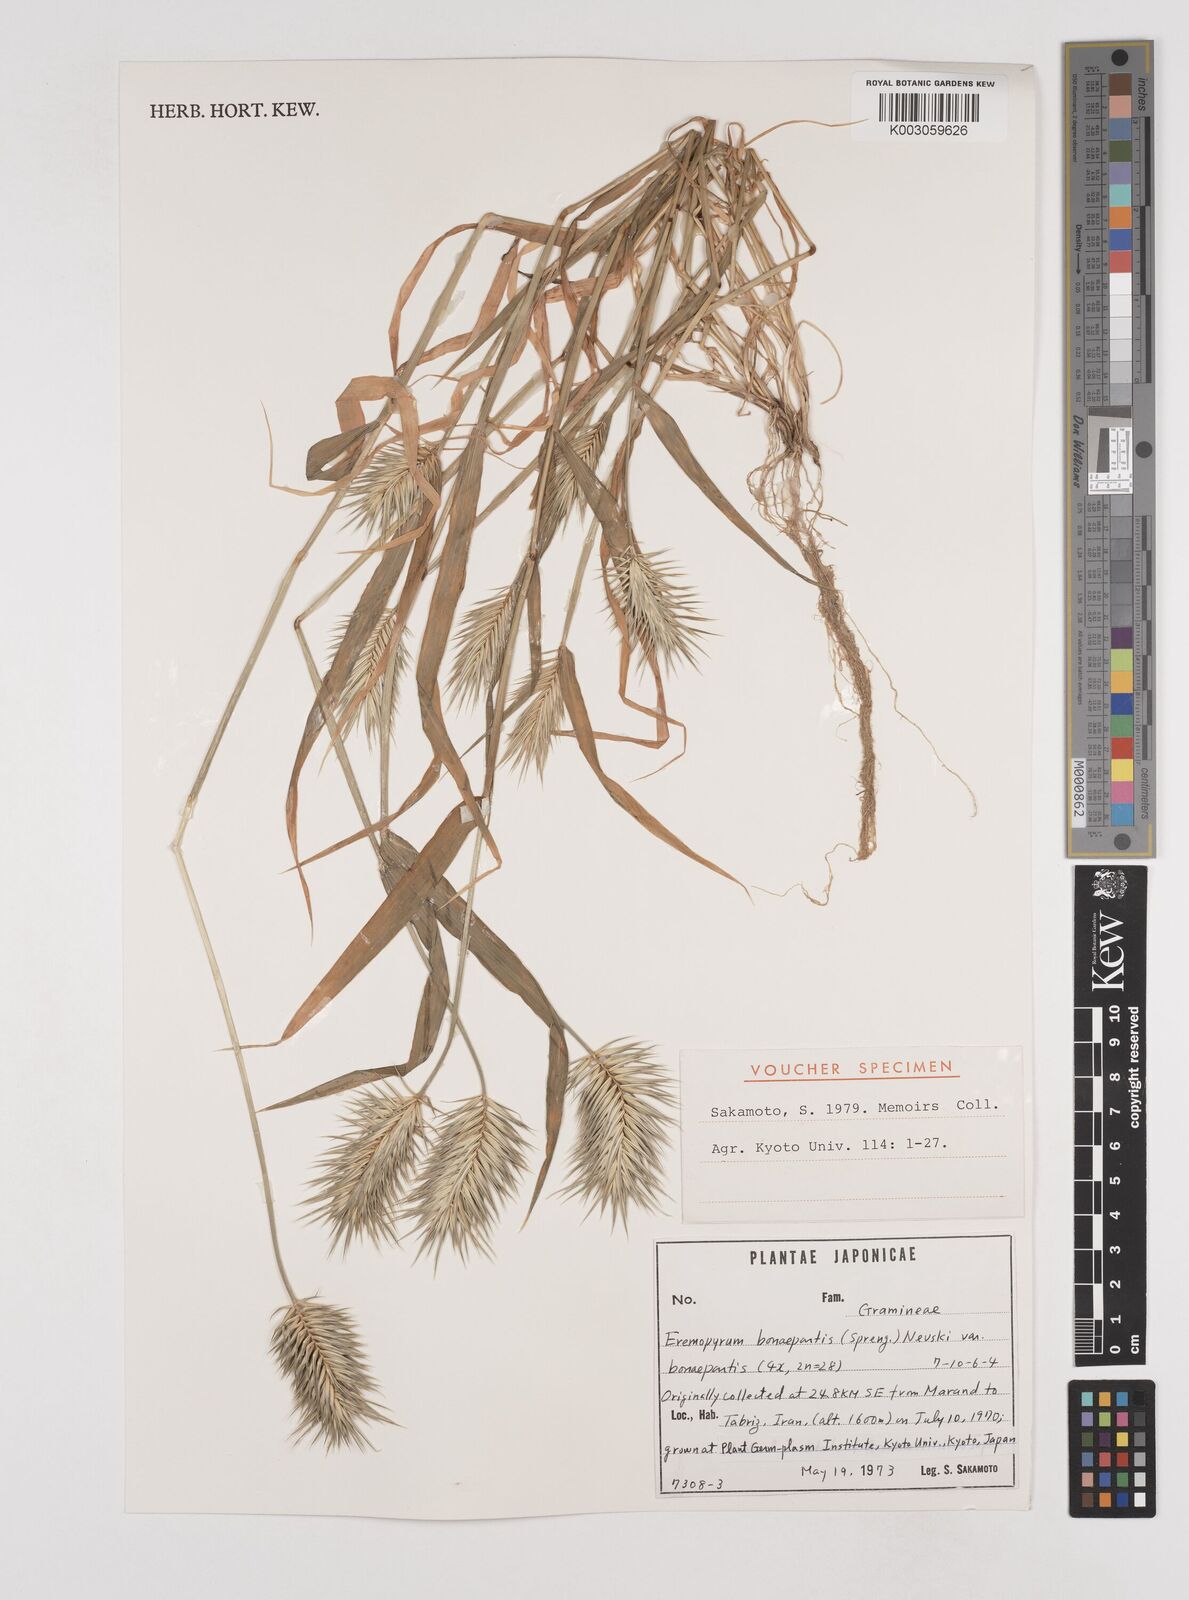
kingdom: Plantae
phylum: Tracheophyta
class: Liliopsida
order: Poales
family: Poaceae
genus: Eremopyrum
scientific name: Eremopyrum bonaepartis
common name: Tapertip false wheatgrass
